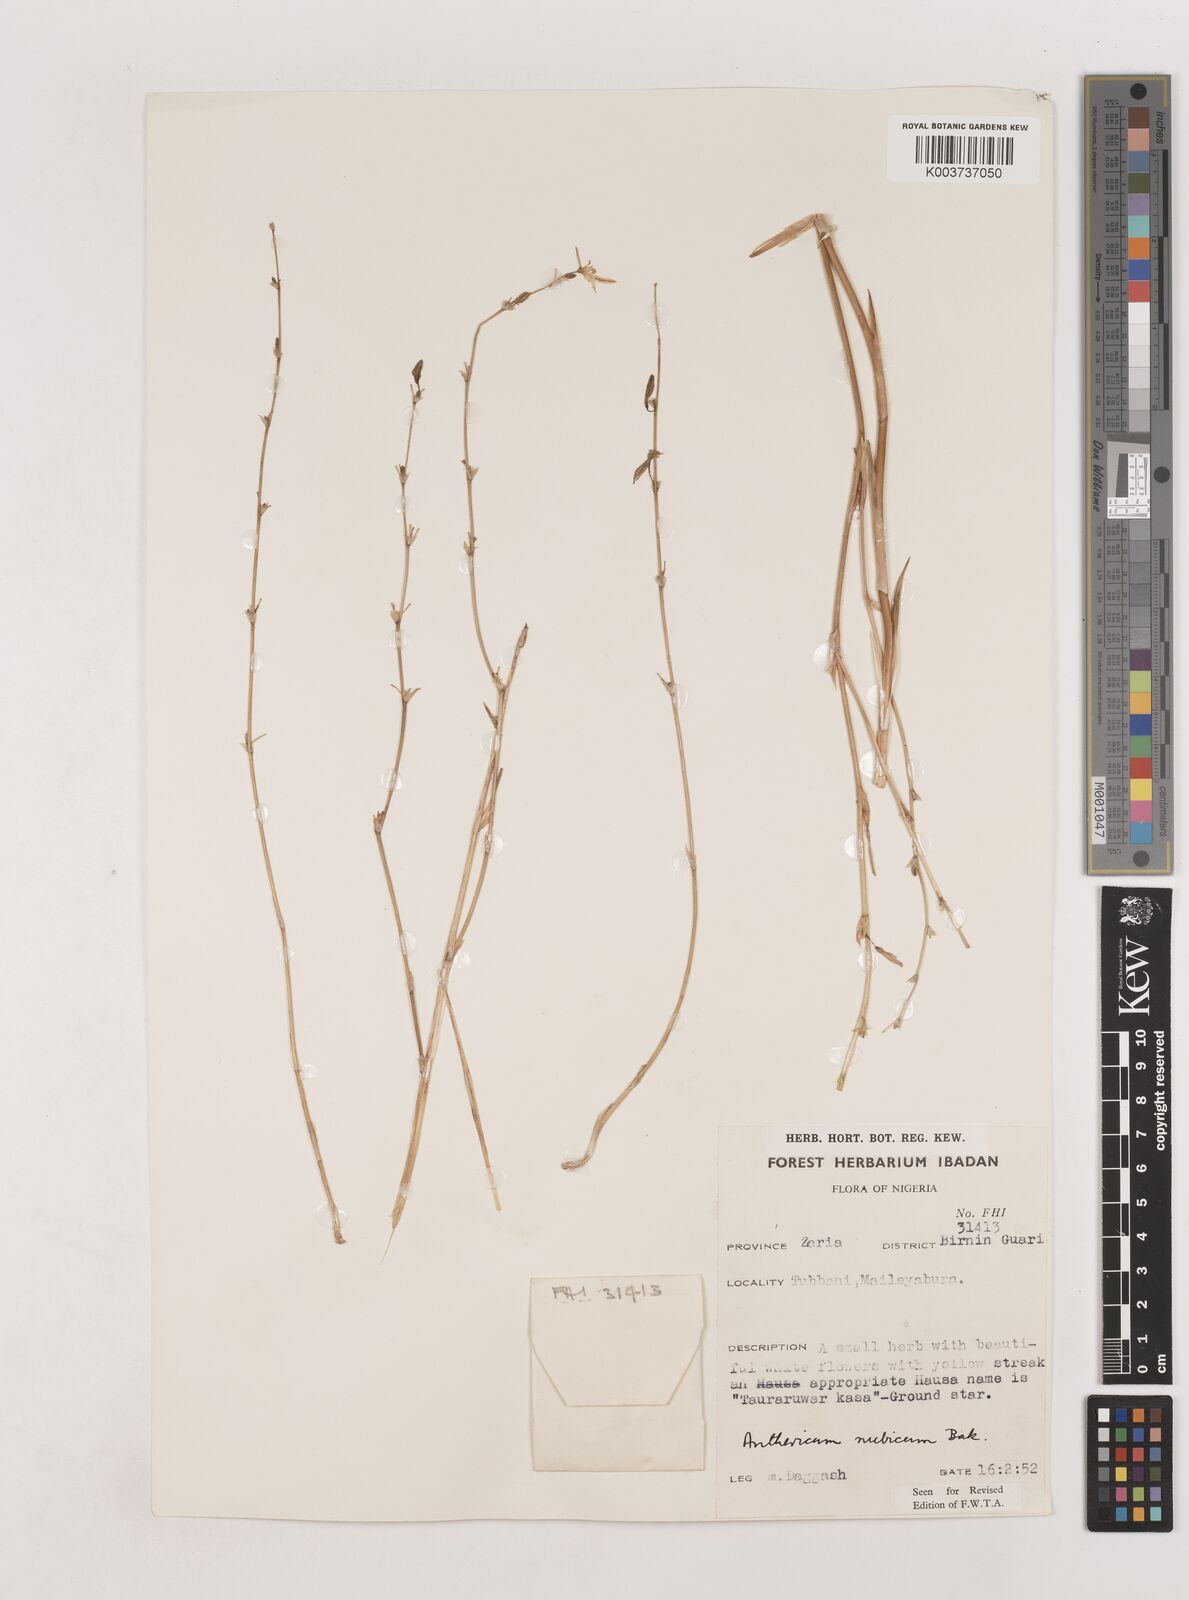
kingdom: Plantae
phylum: Tracheophyta
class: Liliopsida
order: Asparagales
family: Asparagaceae
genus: Chlorophytum
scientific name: Chlorophytum nubicum
